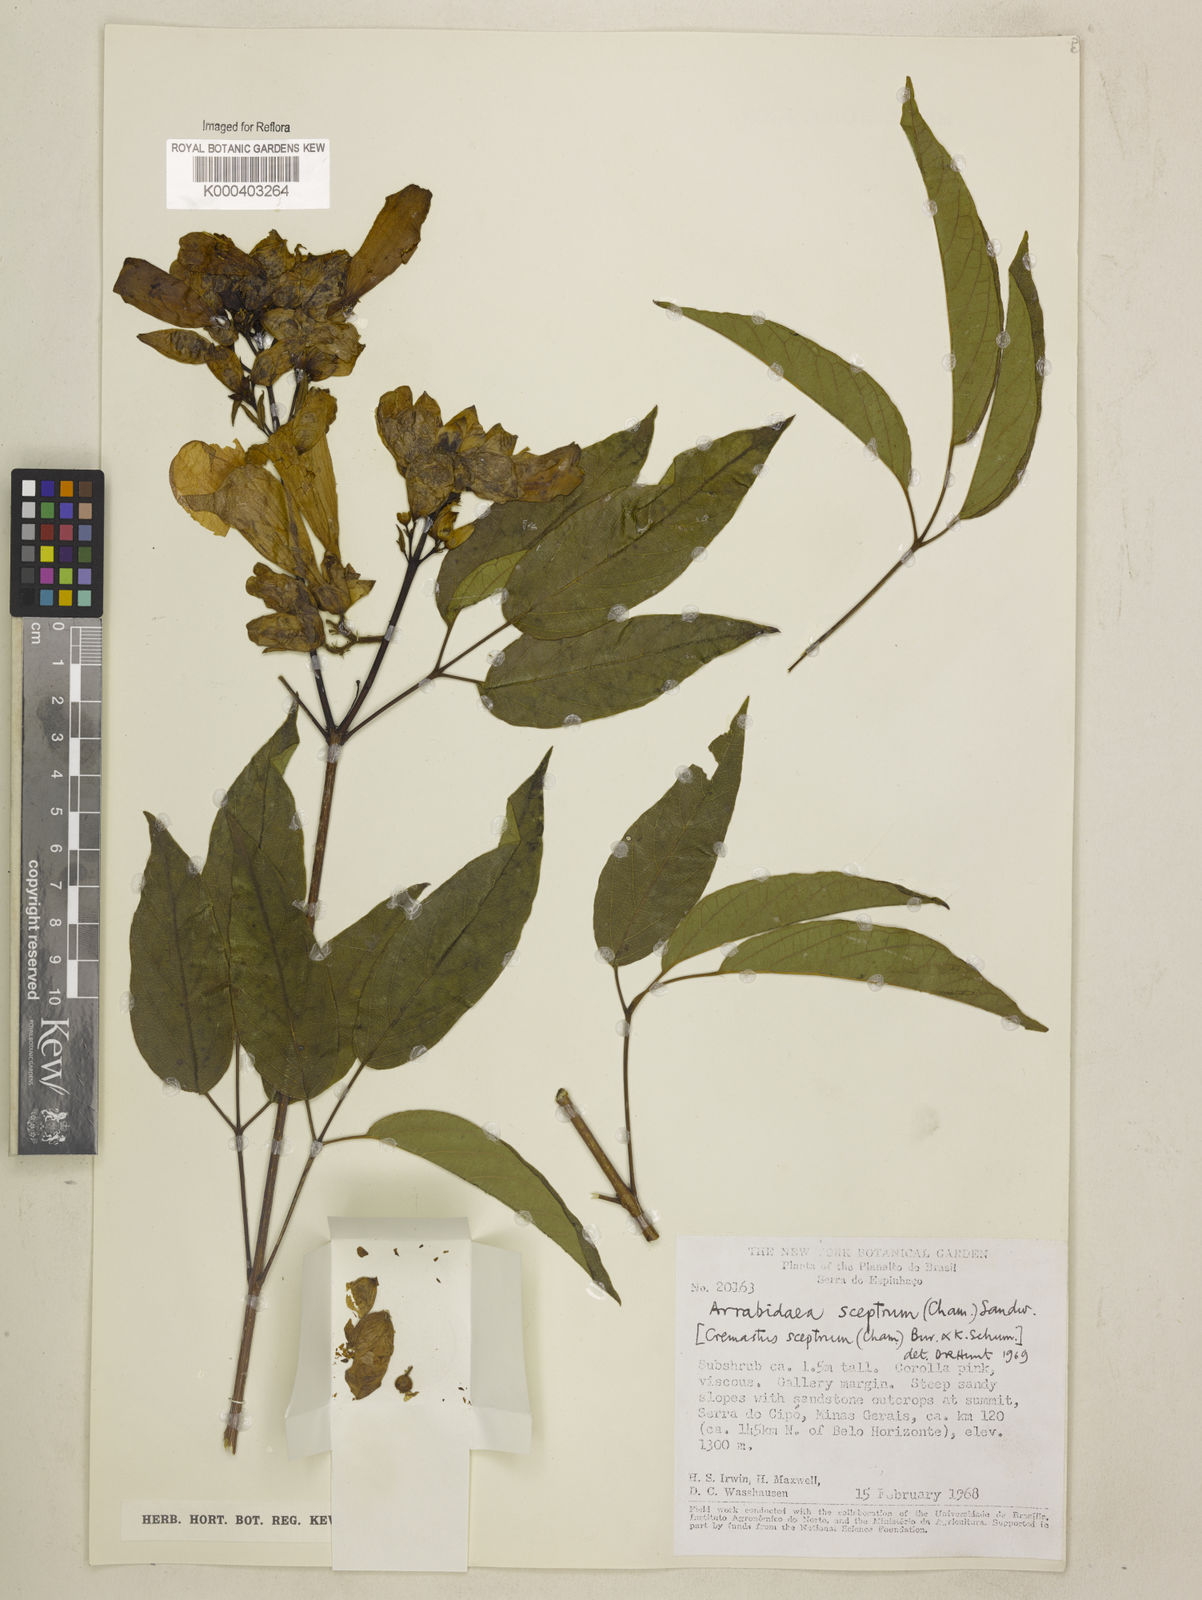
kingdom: Plantae
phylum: Tracheophyta
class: Magnoliopsida
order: Lamiales
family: Bignoniaceae
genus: Cuspidaria
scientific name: Cuspidaria sceptrum
